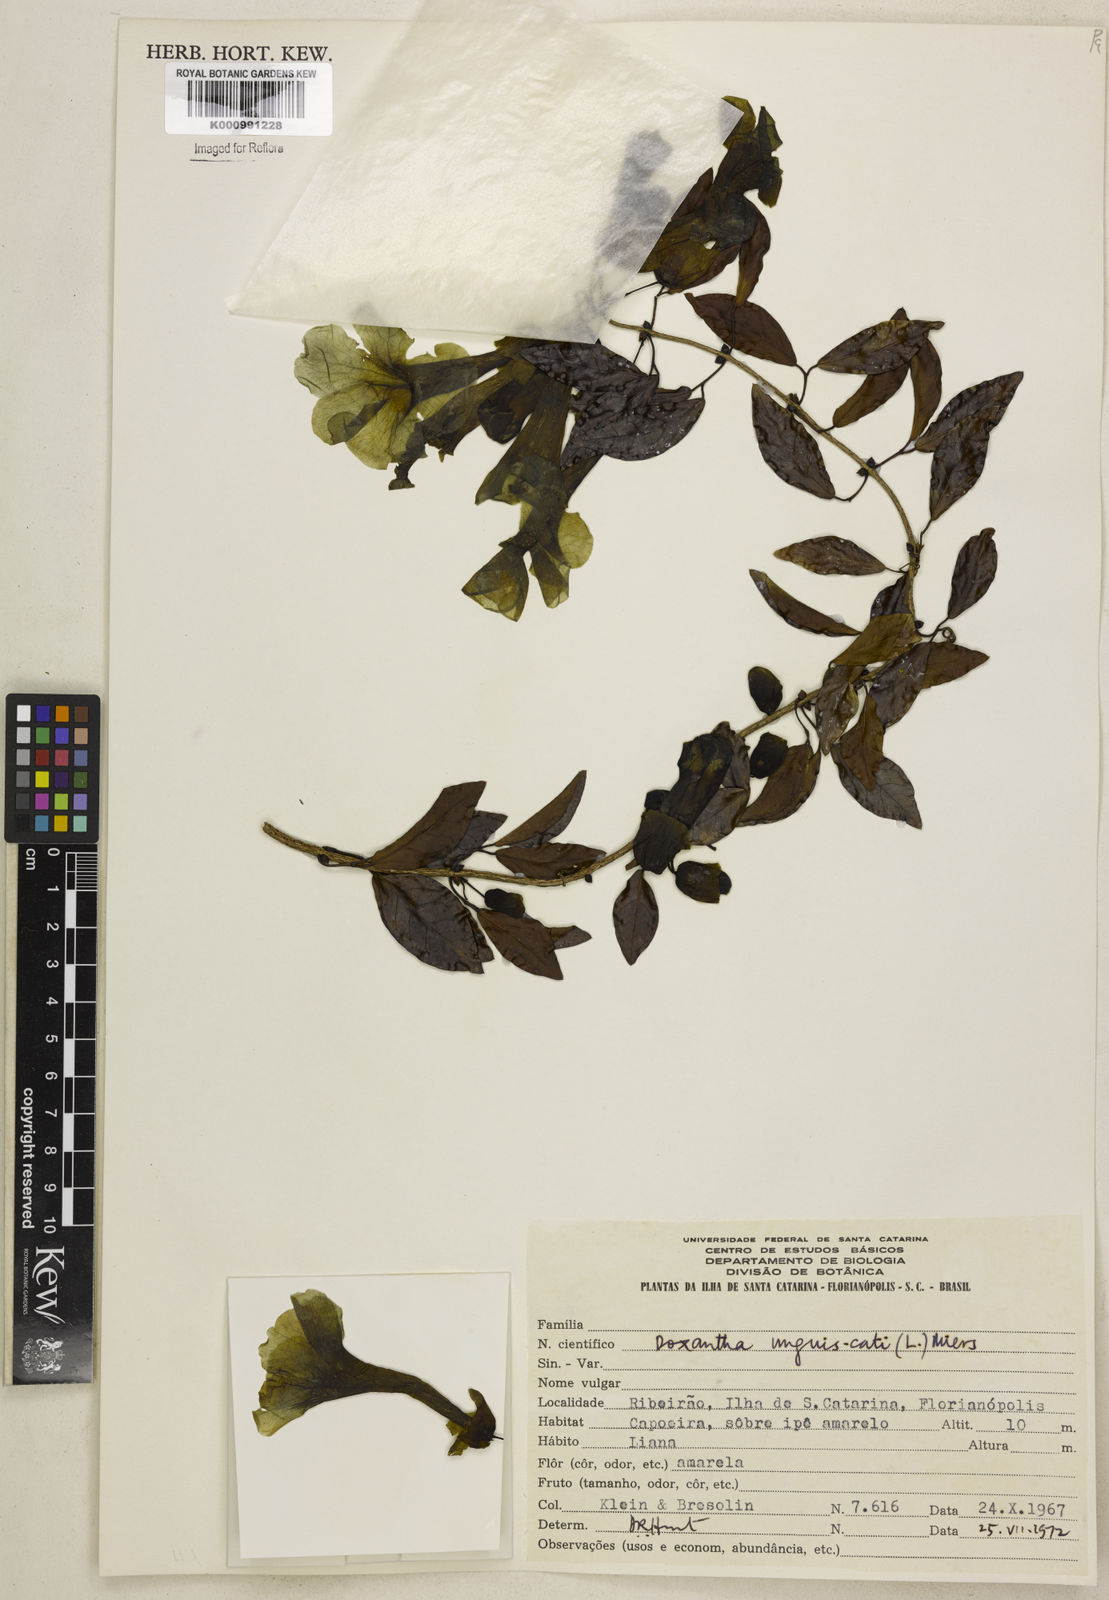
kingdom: Plantae
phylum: Tracheophyta
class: Magnoliopsida
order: Lamiales
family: Bignoniaceae
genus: Dolichandra
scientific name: Dolichandra unguis-cati
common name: Catclaw vine
